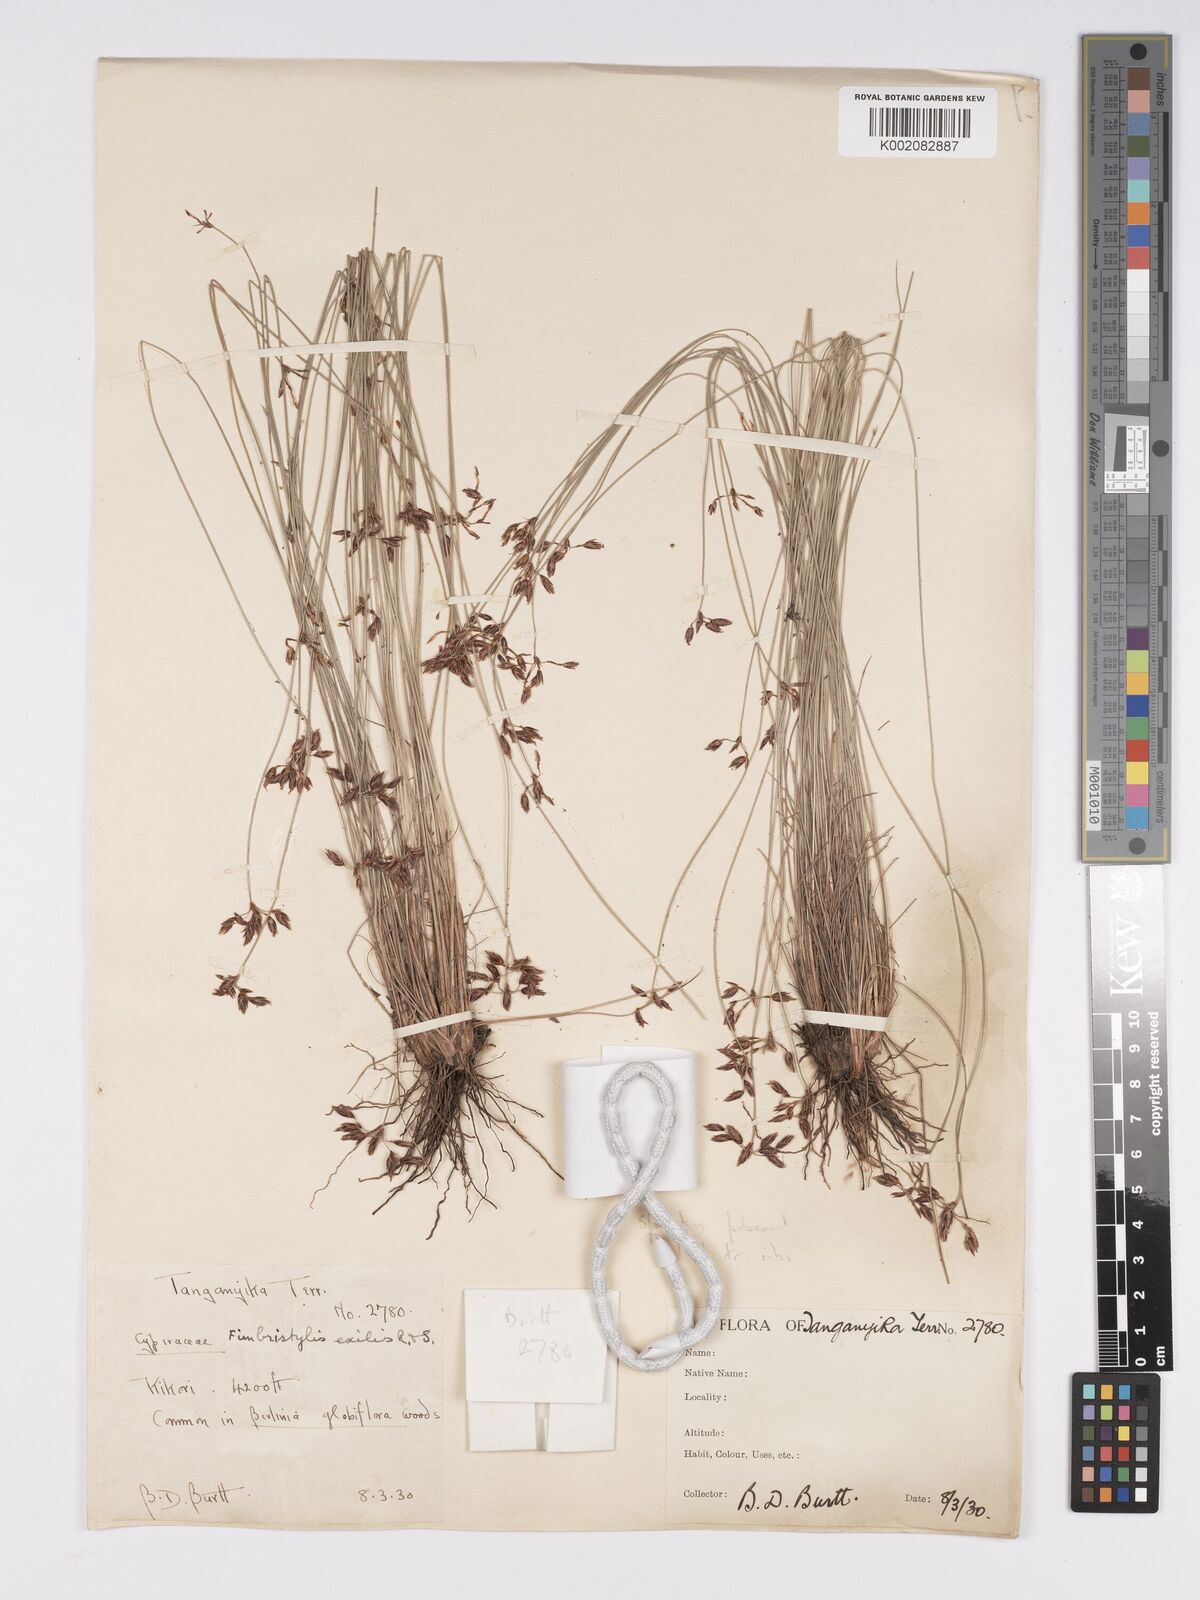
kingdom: Plantae
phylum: Tracheophyta
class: Liliopsida
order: Poales
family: Cyperaceae
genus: Bulbostylis
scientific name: Bulbostylis hispidula
